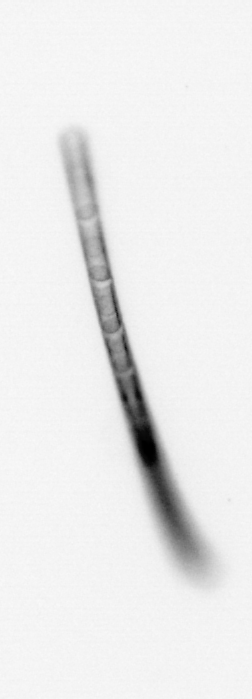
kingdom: Chromista
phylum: Ochrophyta
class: Bacillariophyceae
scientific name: Bacillariophyceae
